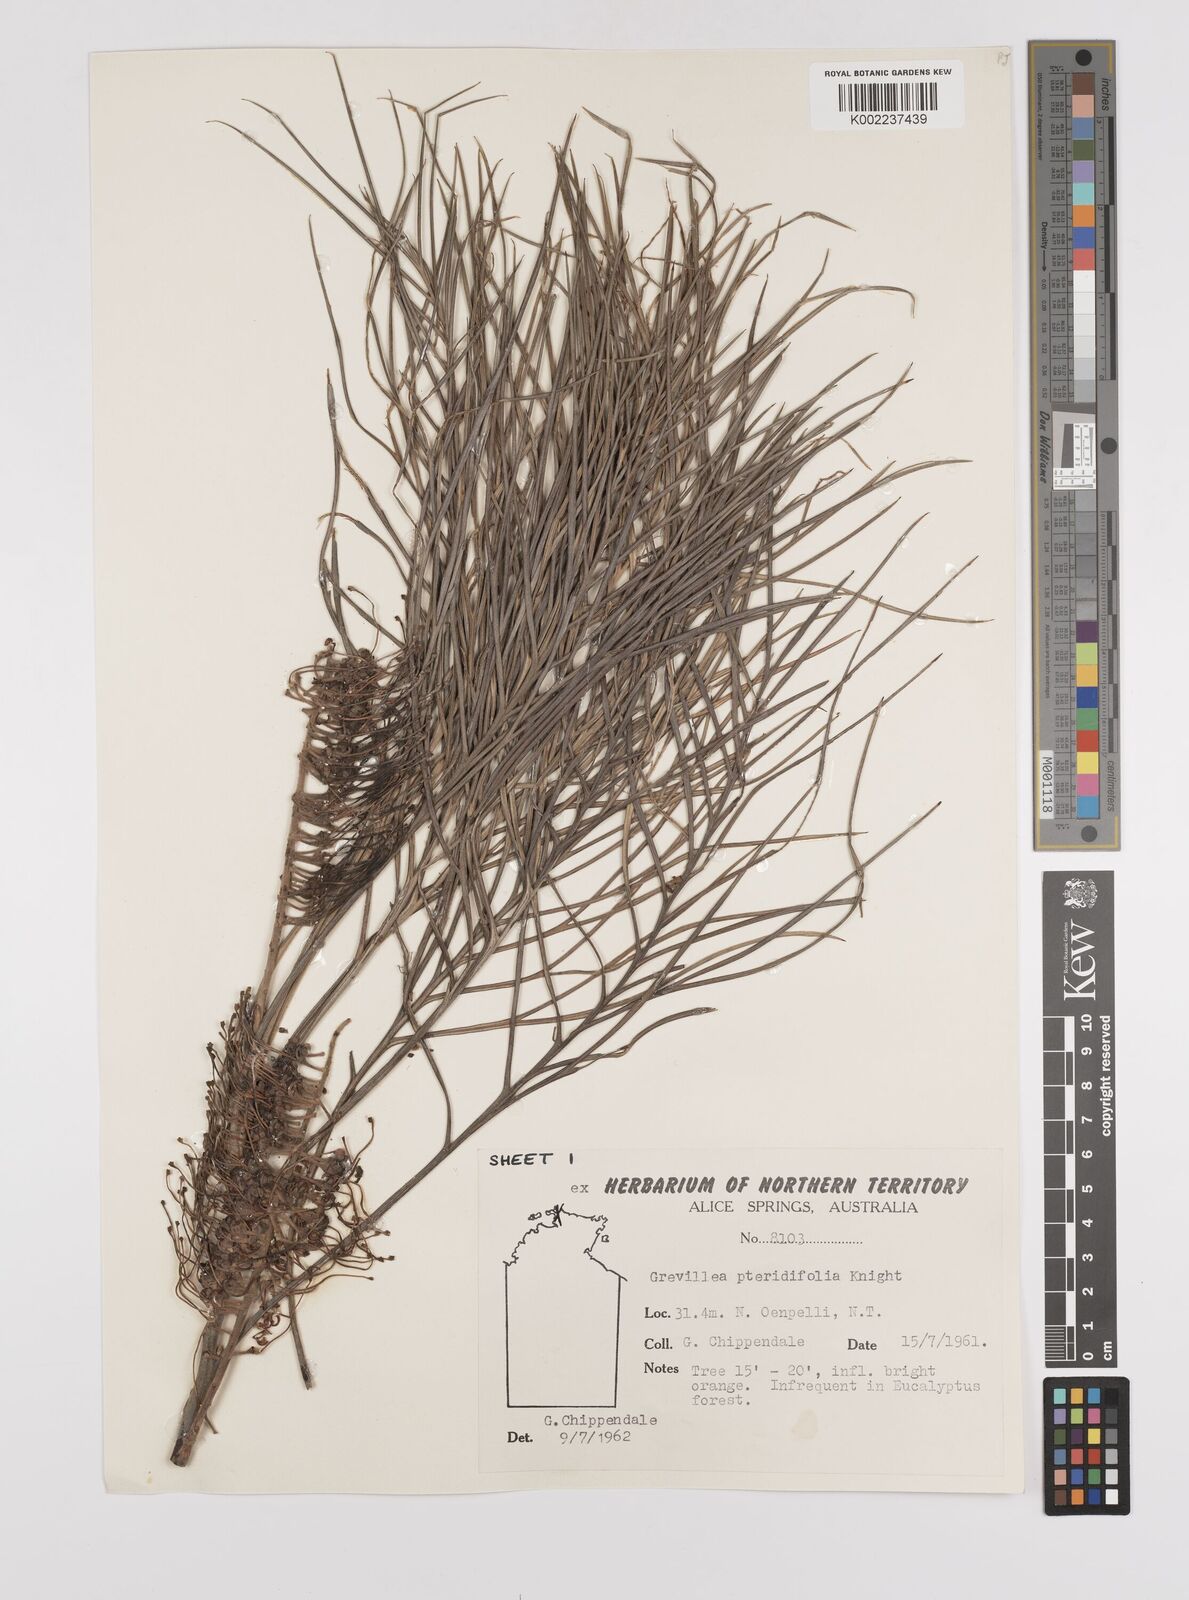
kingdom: Plantae
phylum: Tracheophyta
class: Magnoliopsida
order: Proteales
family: Proteaceae
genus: Grevillea
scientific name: Grevillea pteridifolia
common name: Golden grevillea
